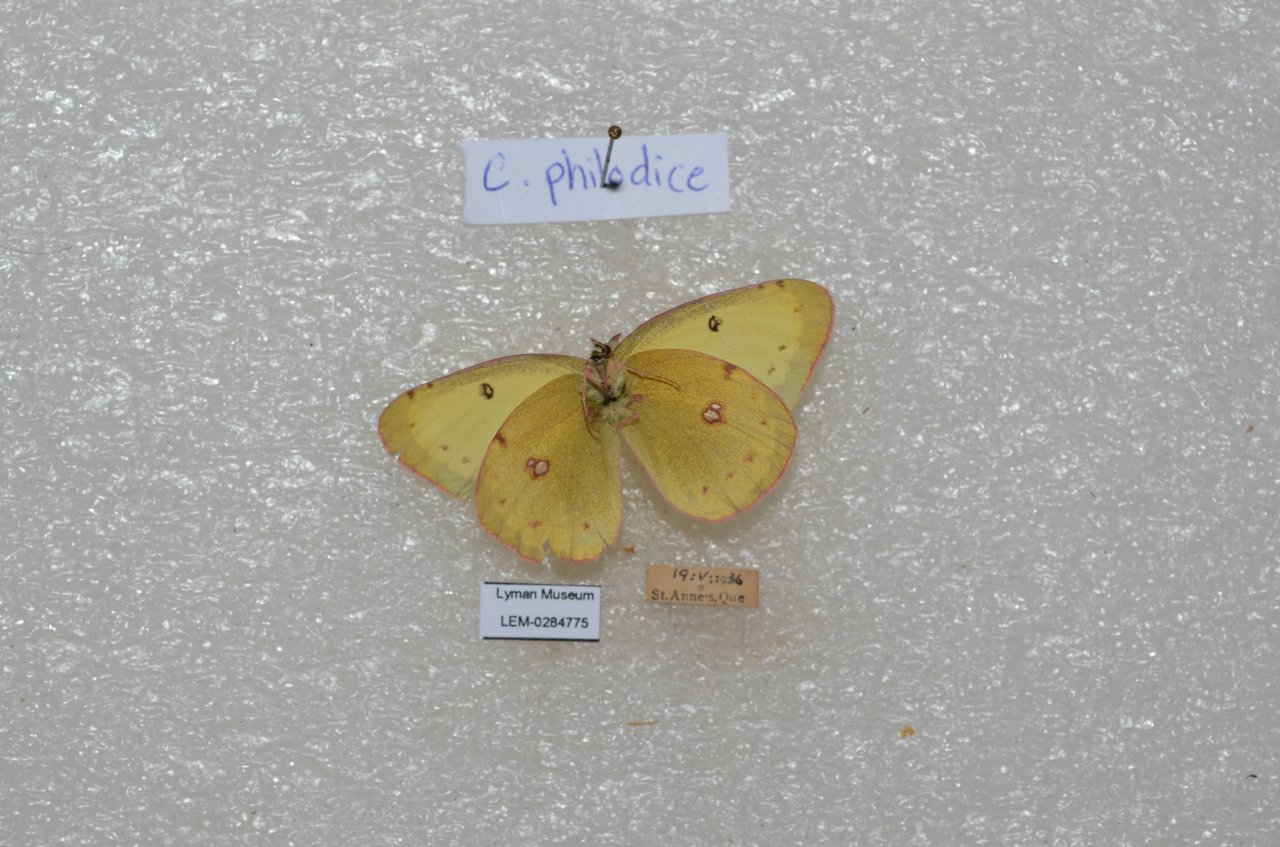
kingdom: Animalia
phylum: Arthropoda
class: Insecta
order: Lepidoptera
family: Pieridae
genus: Colias
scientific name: Colias philodice
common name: Clouded Sulphur
